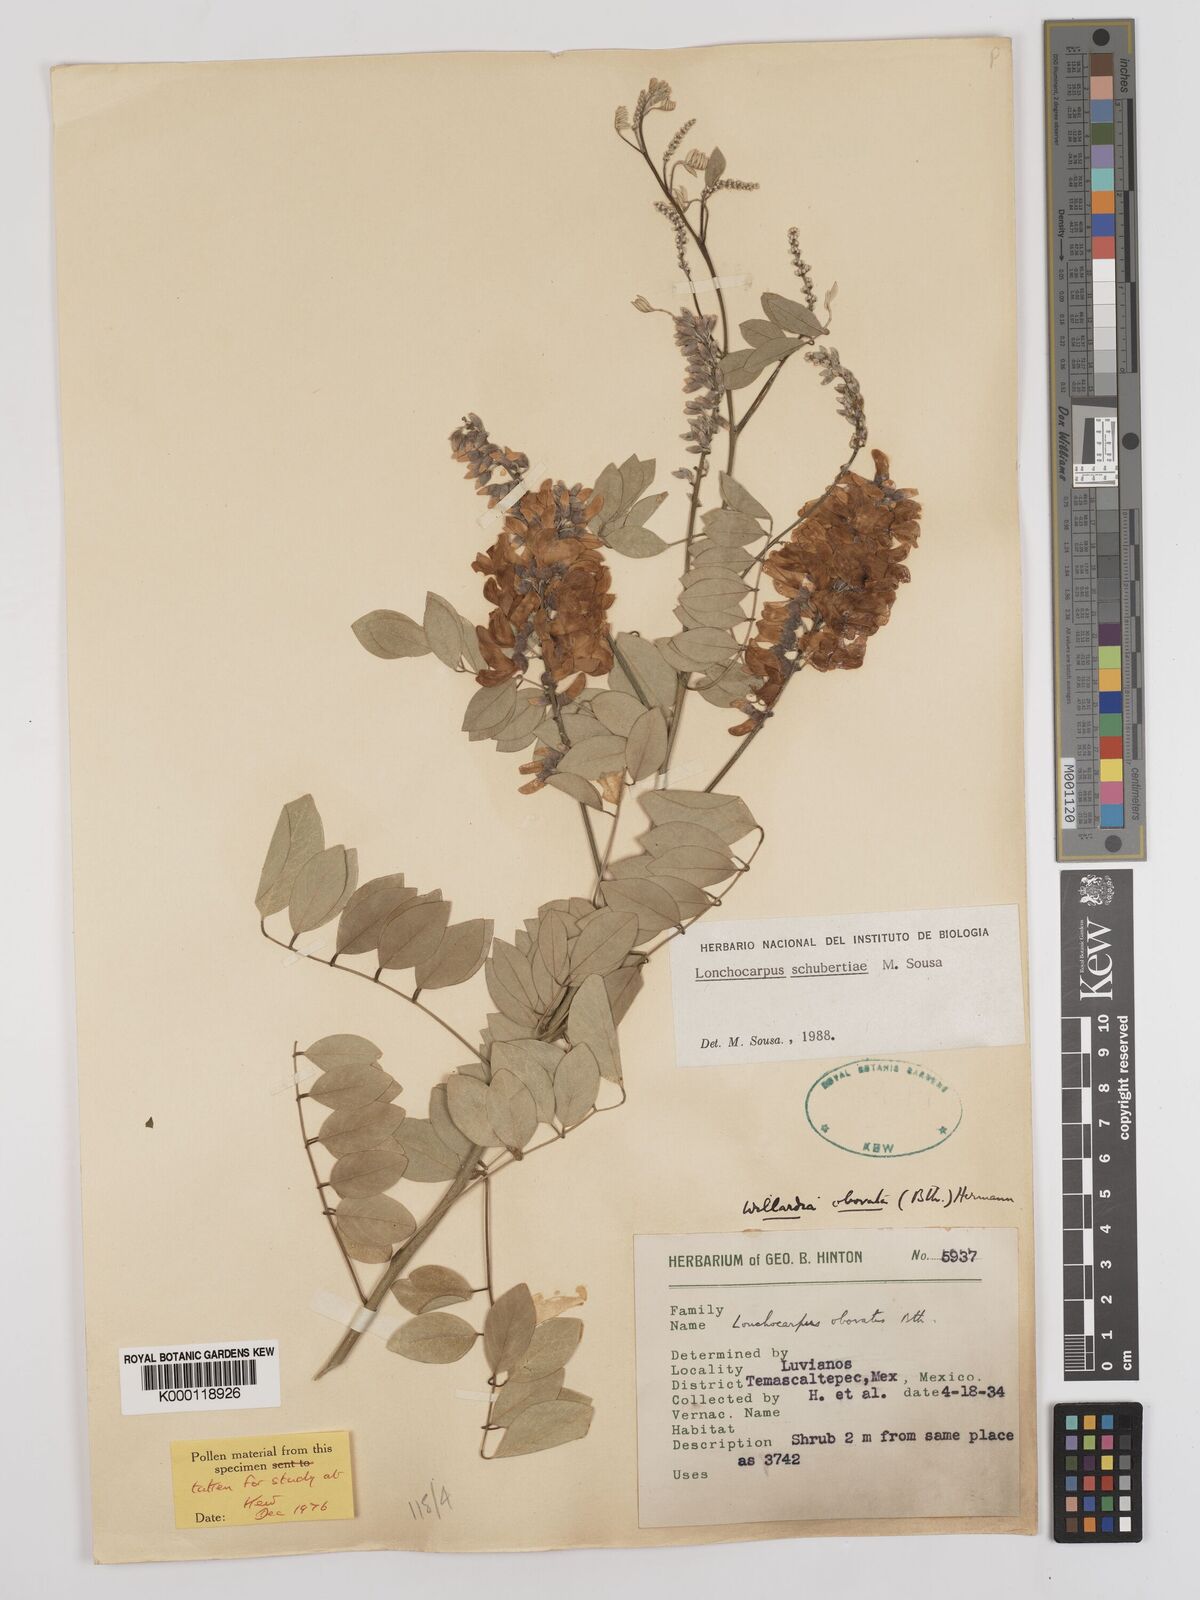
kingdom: Plantae
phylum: Tracheophyta
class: Magnoliopsida
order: Fabales
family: Fabaceae
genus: Lonchocarpus
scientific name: Lonchocarpus schubertiae
